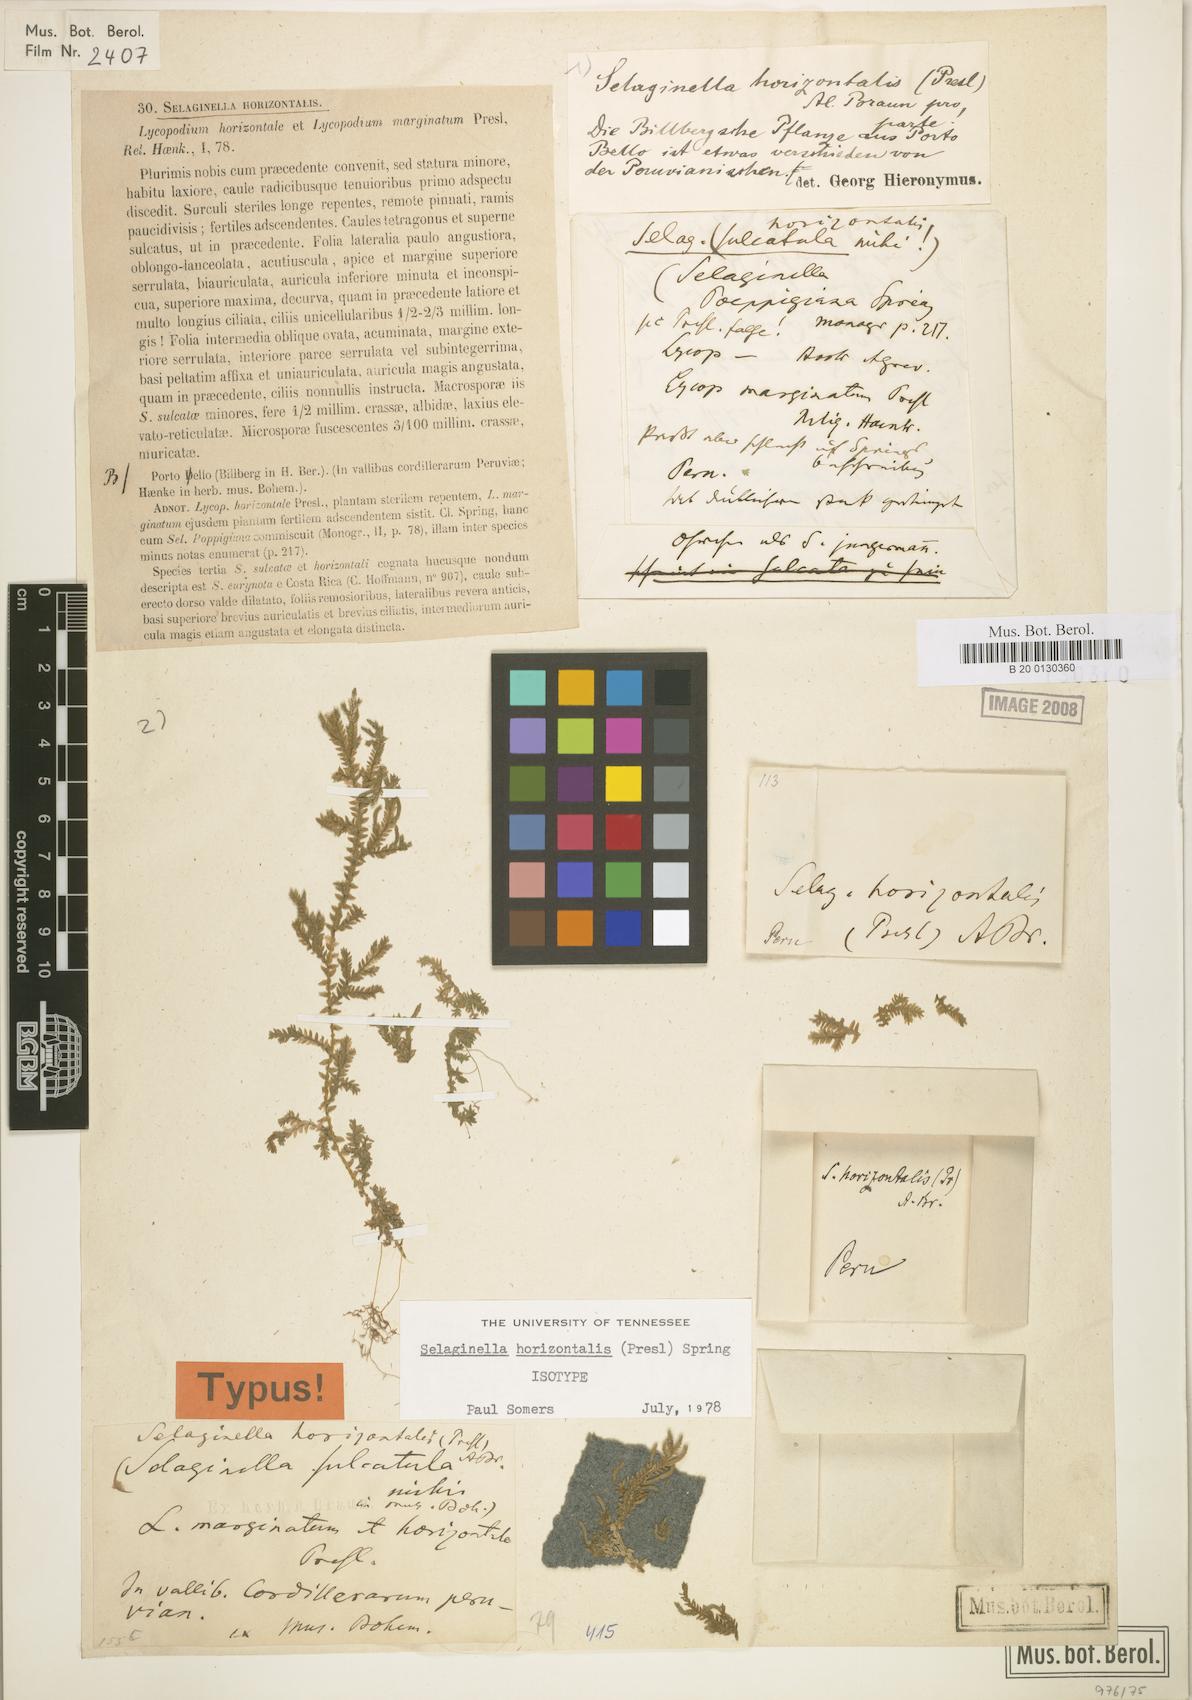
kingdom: Plantae
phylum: Tracheophyta
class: Lycopodiopsida
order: Selaginellales
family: Selaginellaceae
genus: Selaginella
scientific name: Selaginella horizontalis
